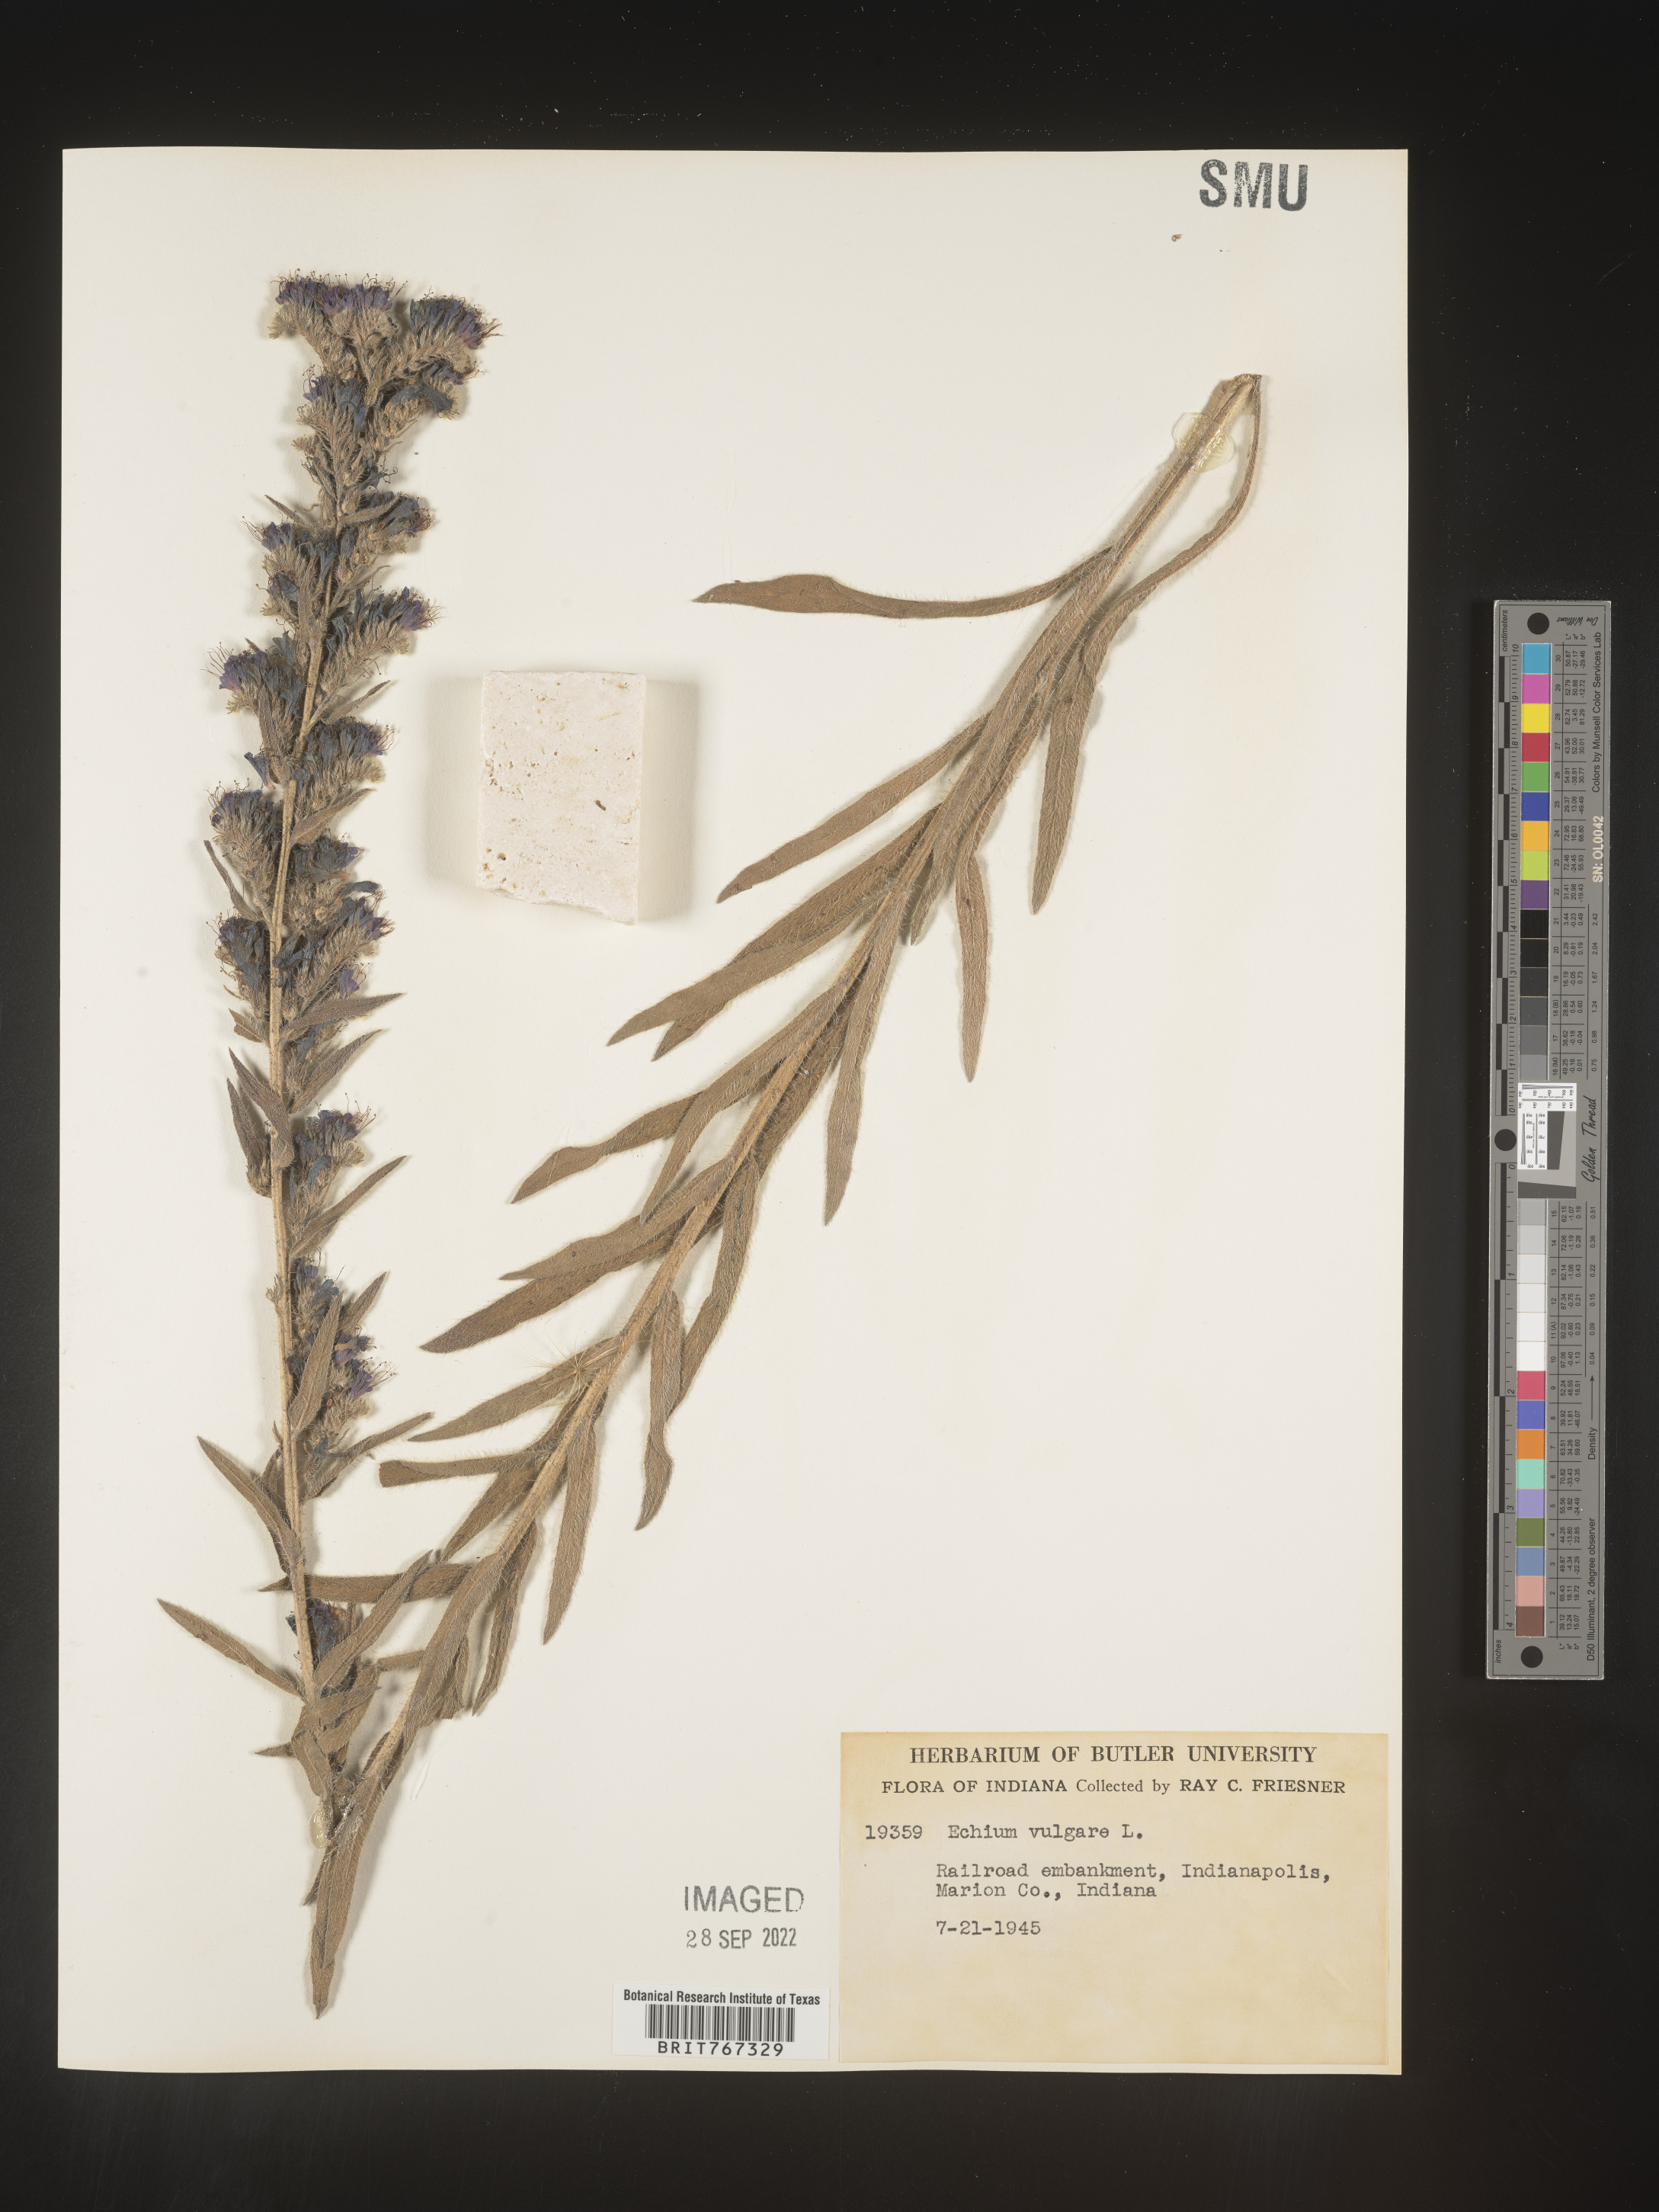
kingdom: Plantae
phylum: Tracheophyta
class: Magnoliopsida
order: Boraginales
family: Boraginaceae
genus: Echium
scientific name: Echium
